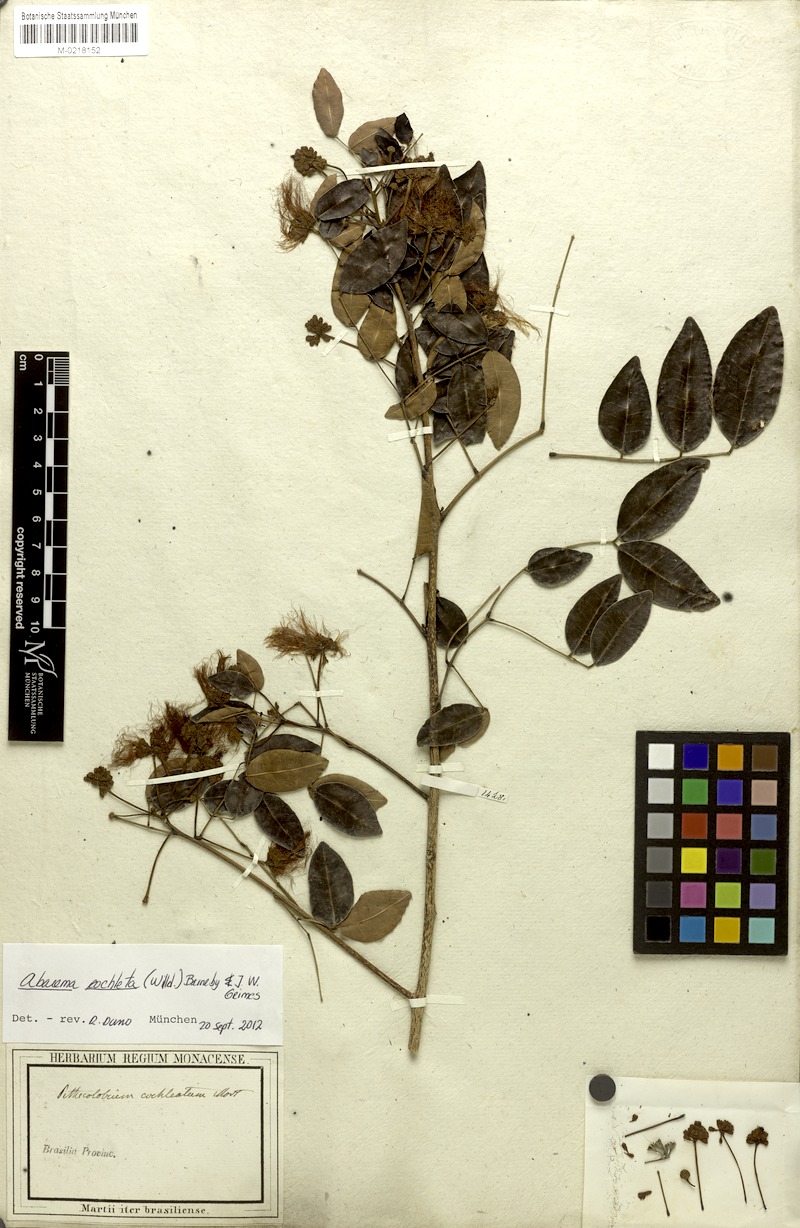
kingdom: Plantae
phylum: Tracheophyta
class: Magnoliopsida
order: Fabales
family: Fabaceae
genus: Jupunba
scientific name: Jupunba cochleata
